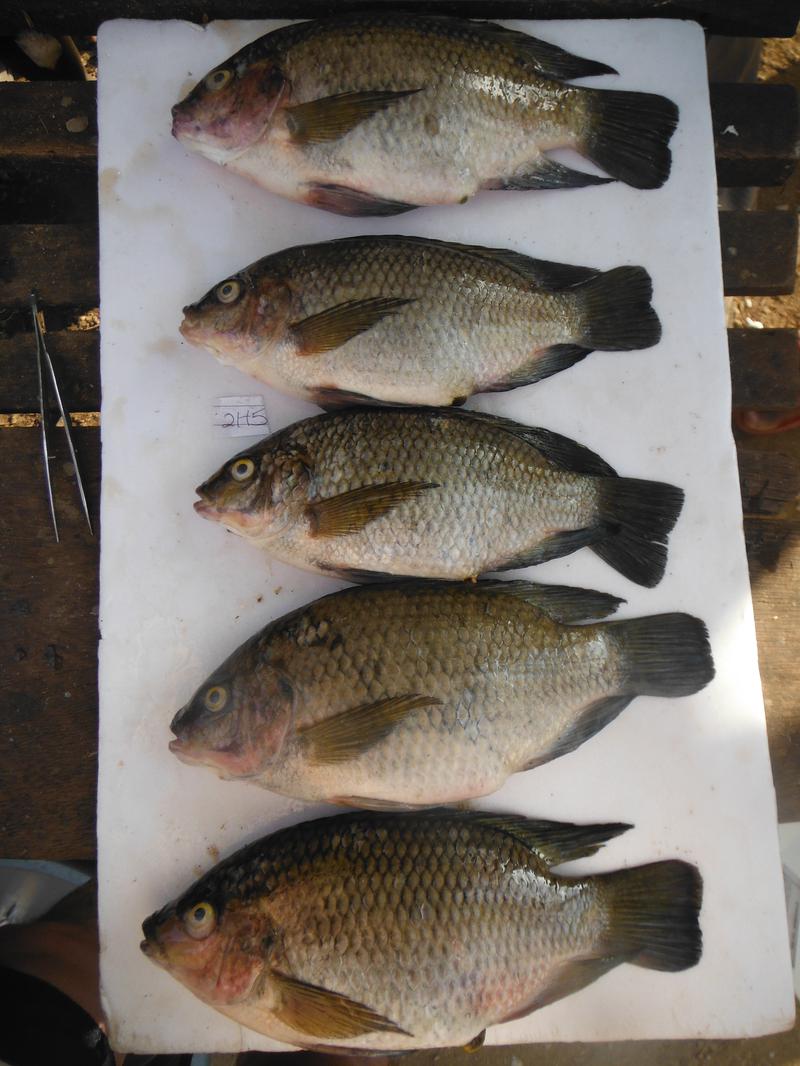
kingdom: Animalia
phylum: Chordata
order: Perciformes
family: Cichlidae
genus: Oreochromis
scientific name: Oreochromis urolepis
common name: Wami tilapia
